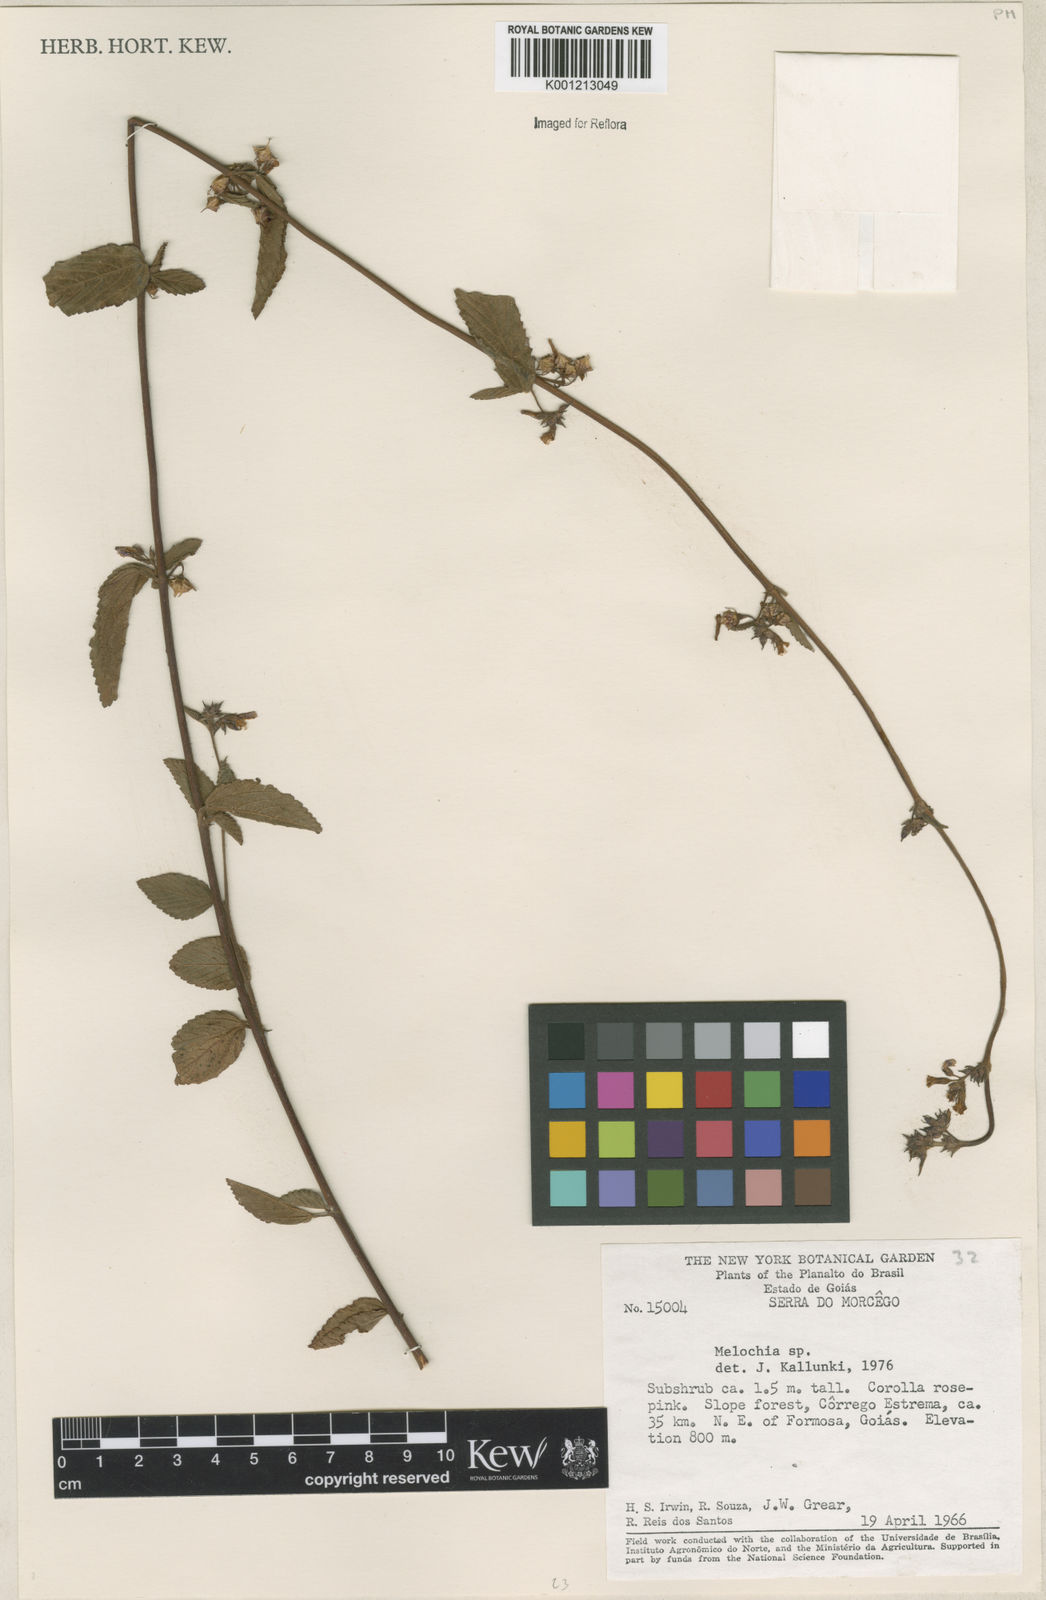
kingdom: Plantae
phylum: Tracheophyta
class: Magnoliopsida
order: Malvales
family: Malvaceae
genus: Melochia
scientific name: Melochia
